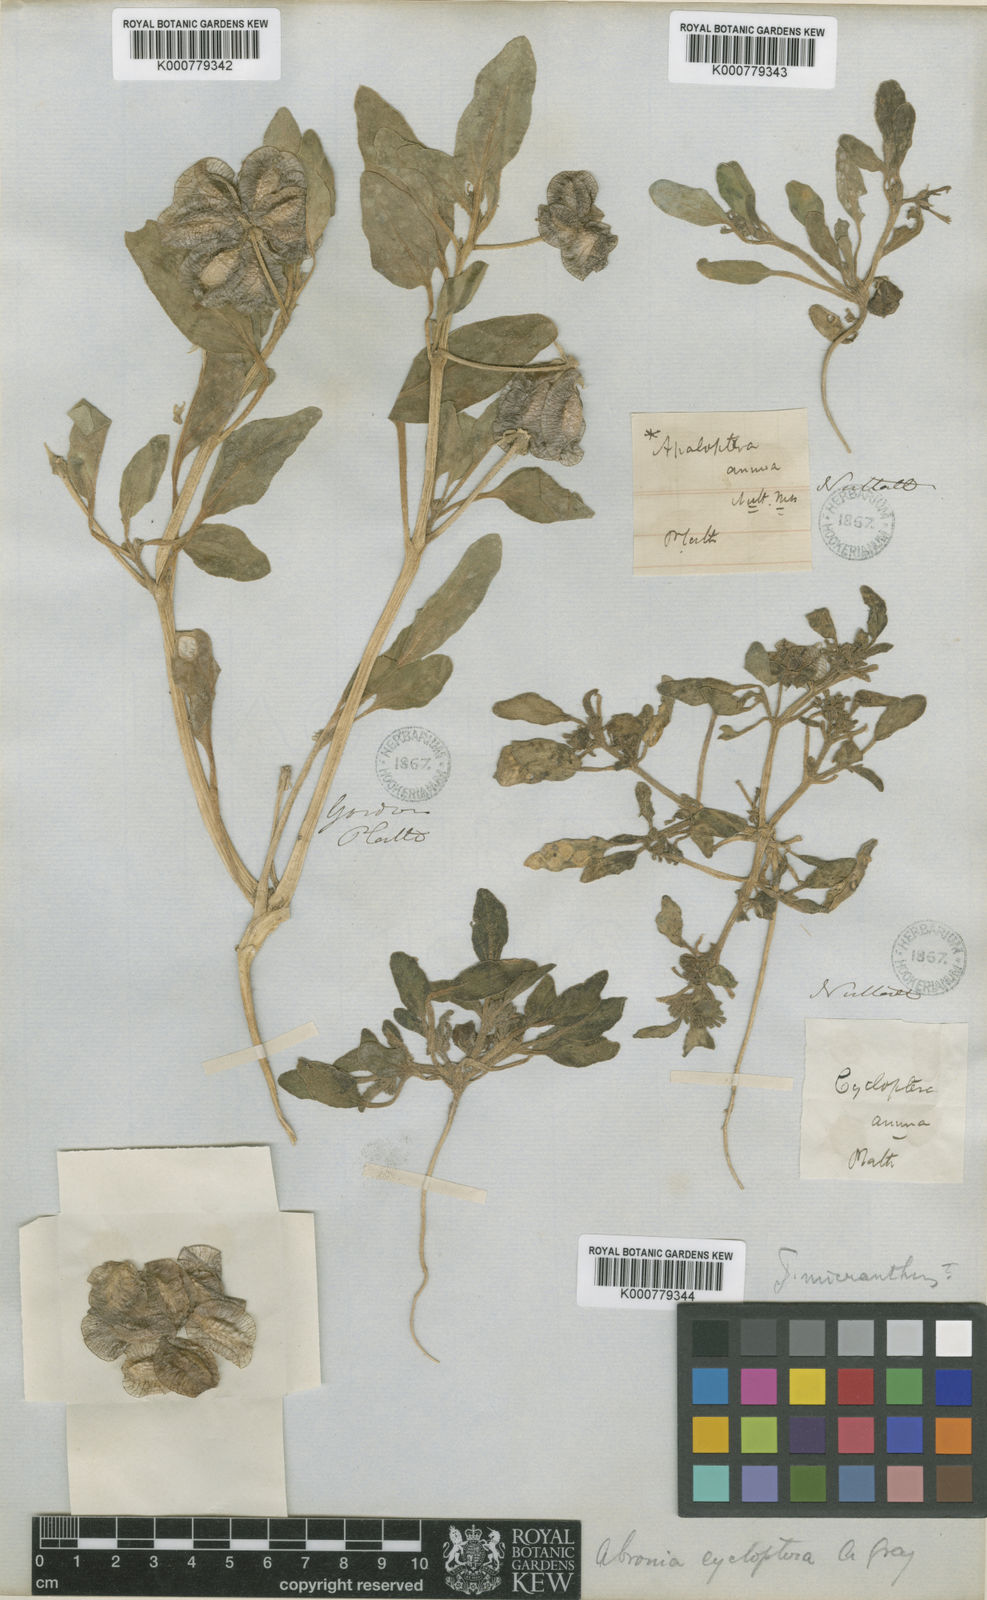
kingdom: Plantae
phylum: Tracheophyta
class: Magnoliopsida
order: Caryophyllales
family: Nyctaginaceae
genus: Tripterocalyx
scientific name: Tripterocalyx micranthus
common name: Small-flowered sand-verbena
